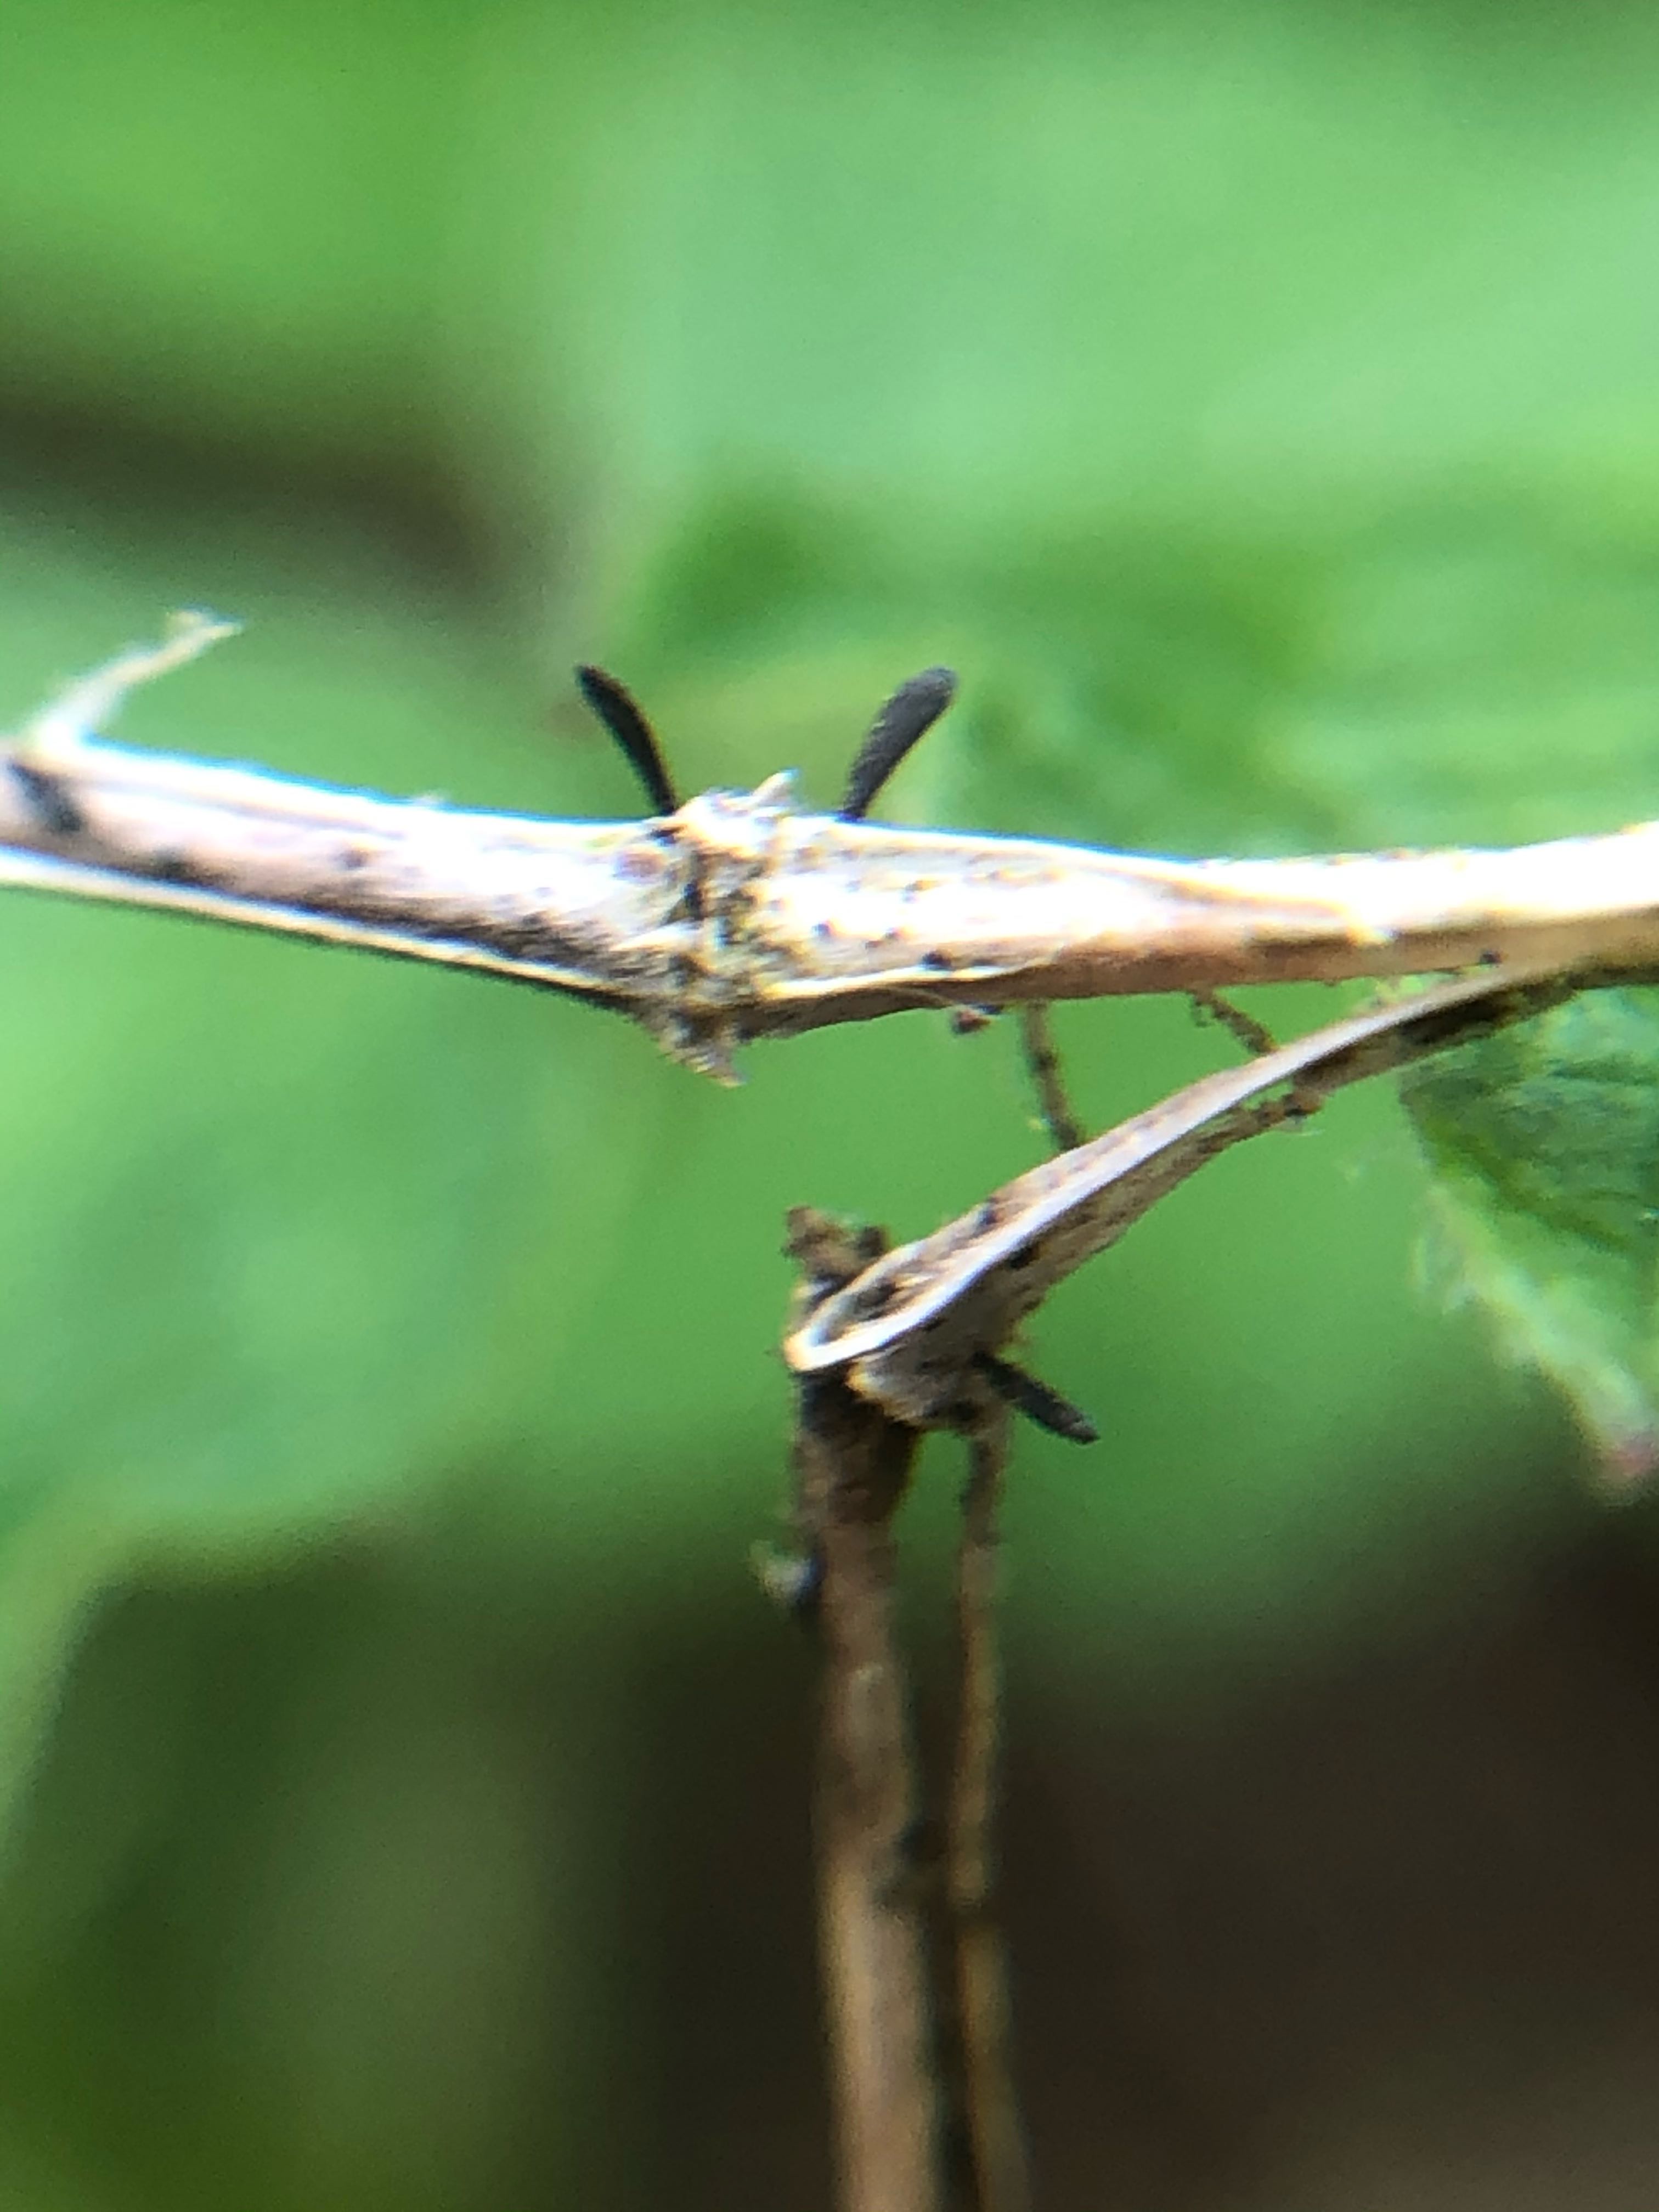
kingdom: Fungi
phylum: Ascomycota
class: Dothideomycetes
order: Acrospermales
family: Acrospermaceae
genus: Acrospermum
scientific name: Acrospermum pallidulum
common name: snerre-stængeltunge
